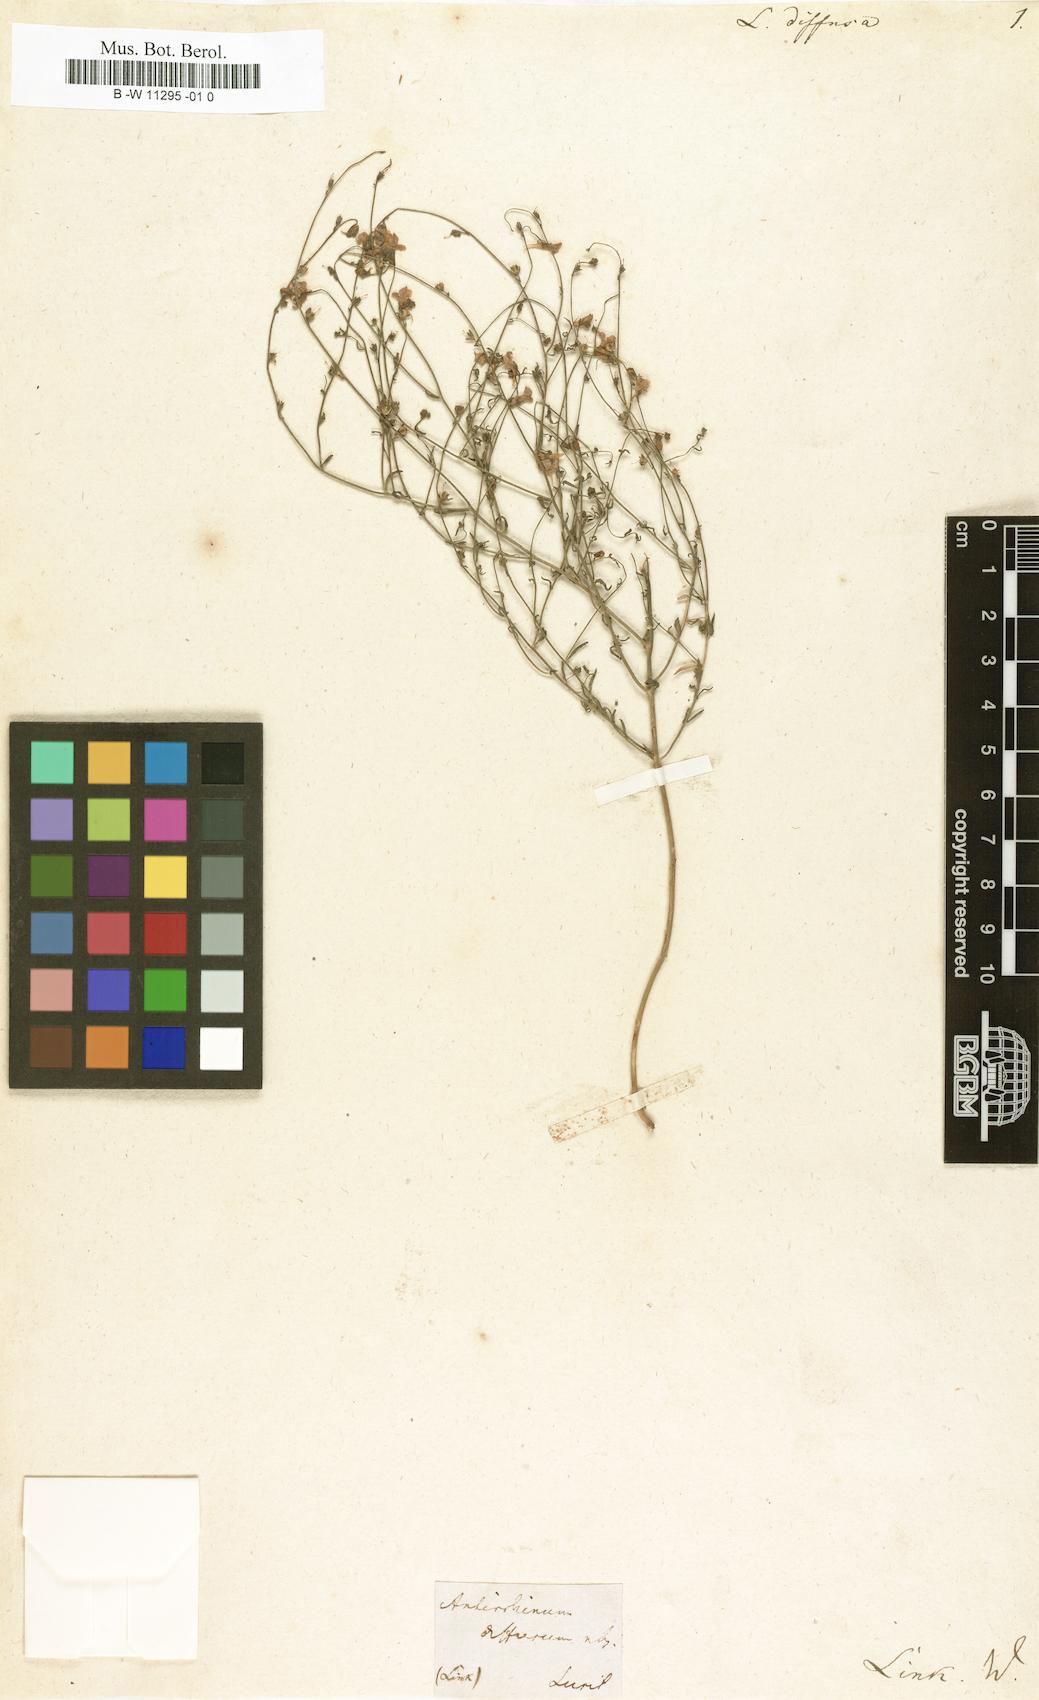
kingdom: Plantae
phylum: Tracheophyta
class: Magnoliopsida
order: Lamiales
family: Plantaginaceae
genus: Linaria
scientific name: Linaria diffusa
